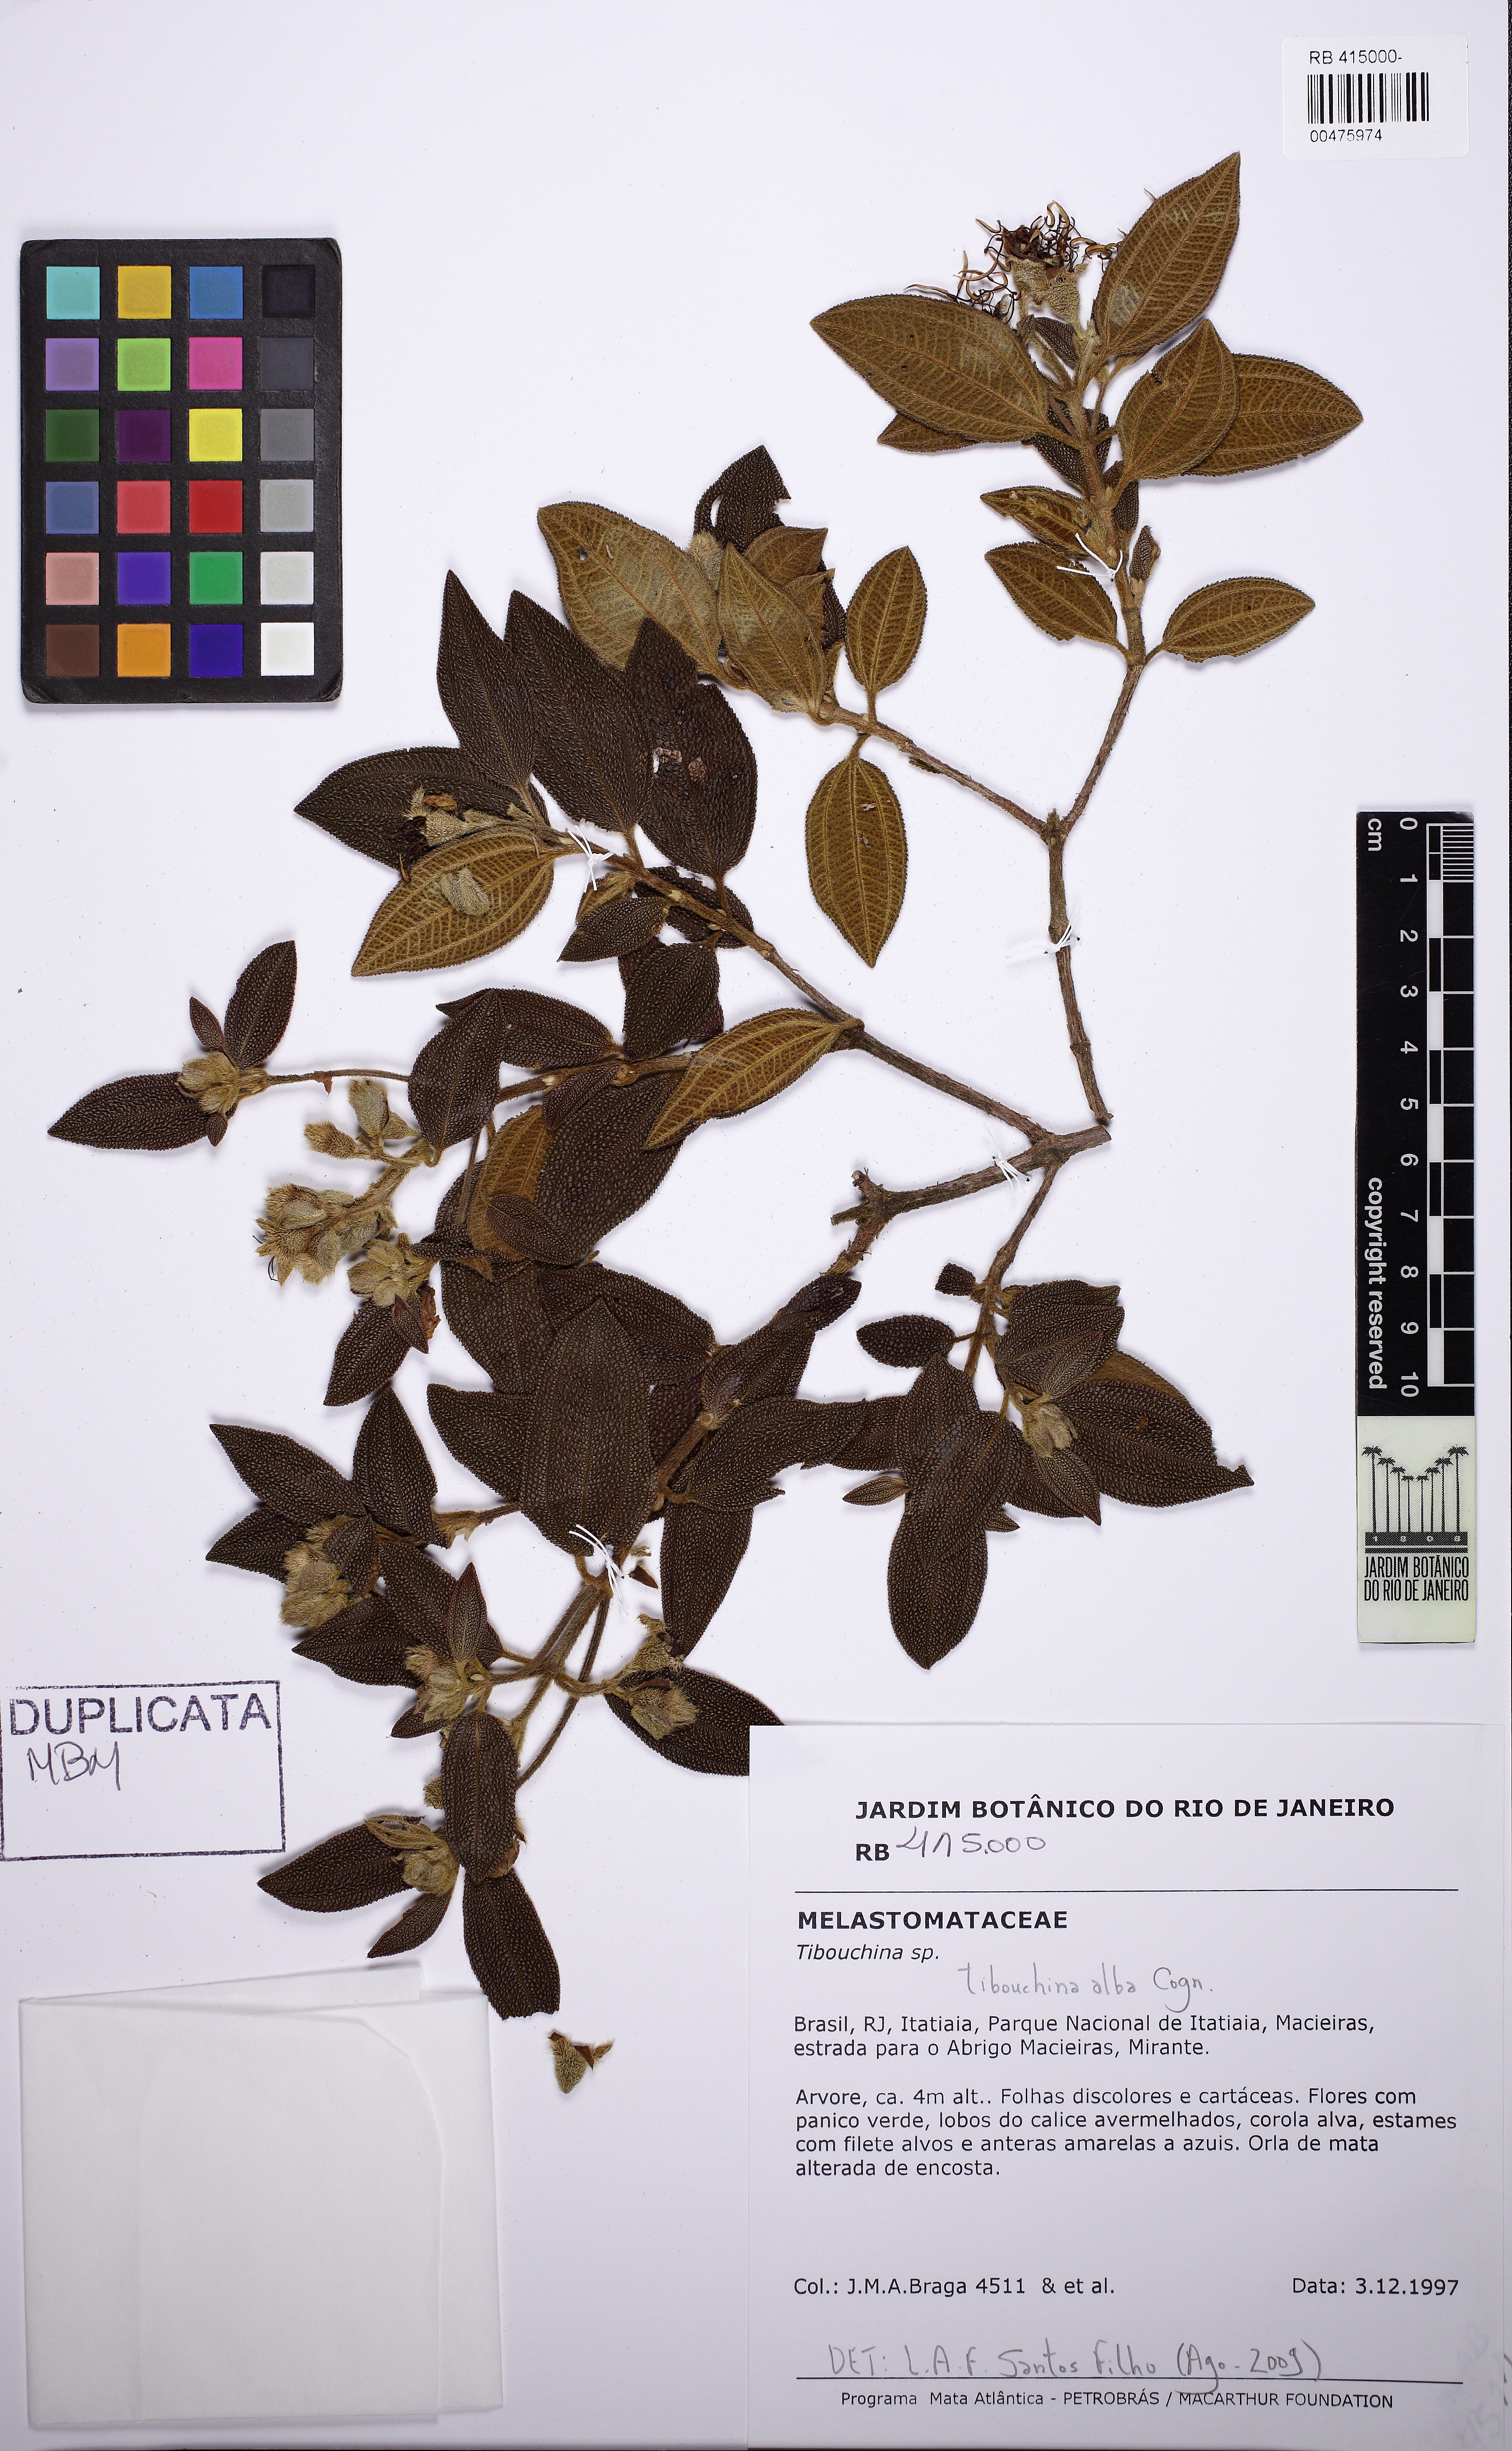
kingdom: Plantae
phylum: Tracheophyta
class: Magnoliopsida
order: Myrtales
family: Melastomataceae
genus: Pleroma
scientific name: Pleroma echinatum
